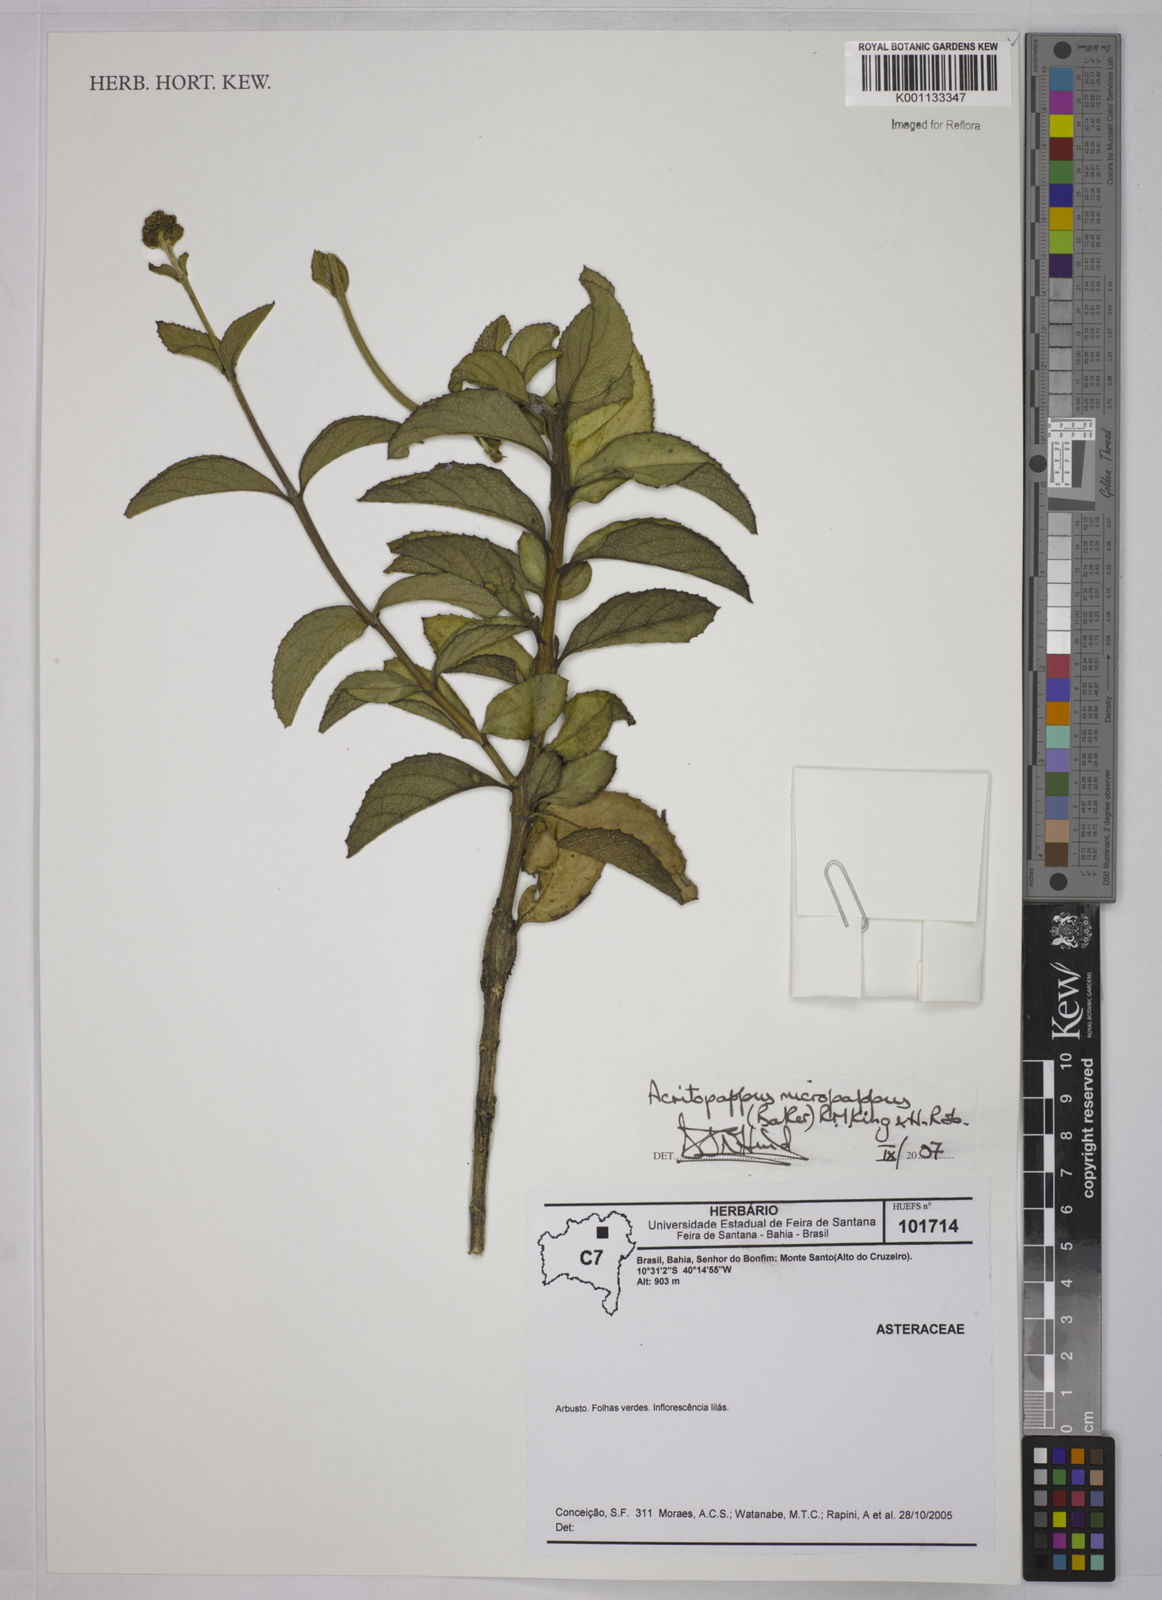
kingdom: Plantae
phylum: Tracheophyta
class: Magnoliopsida
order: Asterales
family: Asteraceae
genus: Acritopappus
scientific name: Acritopappus micropappus
